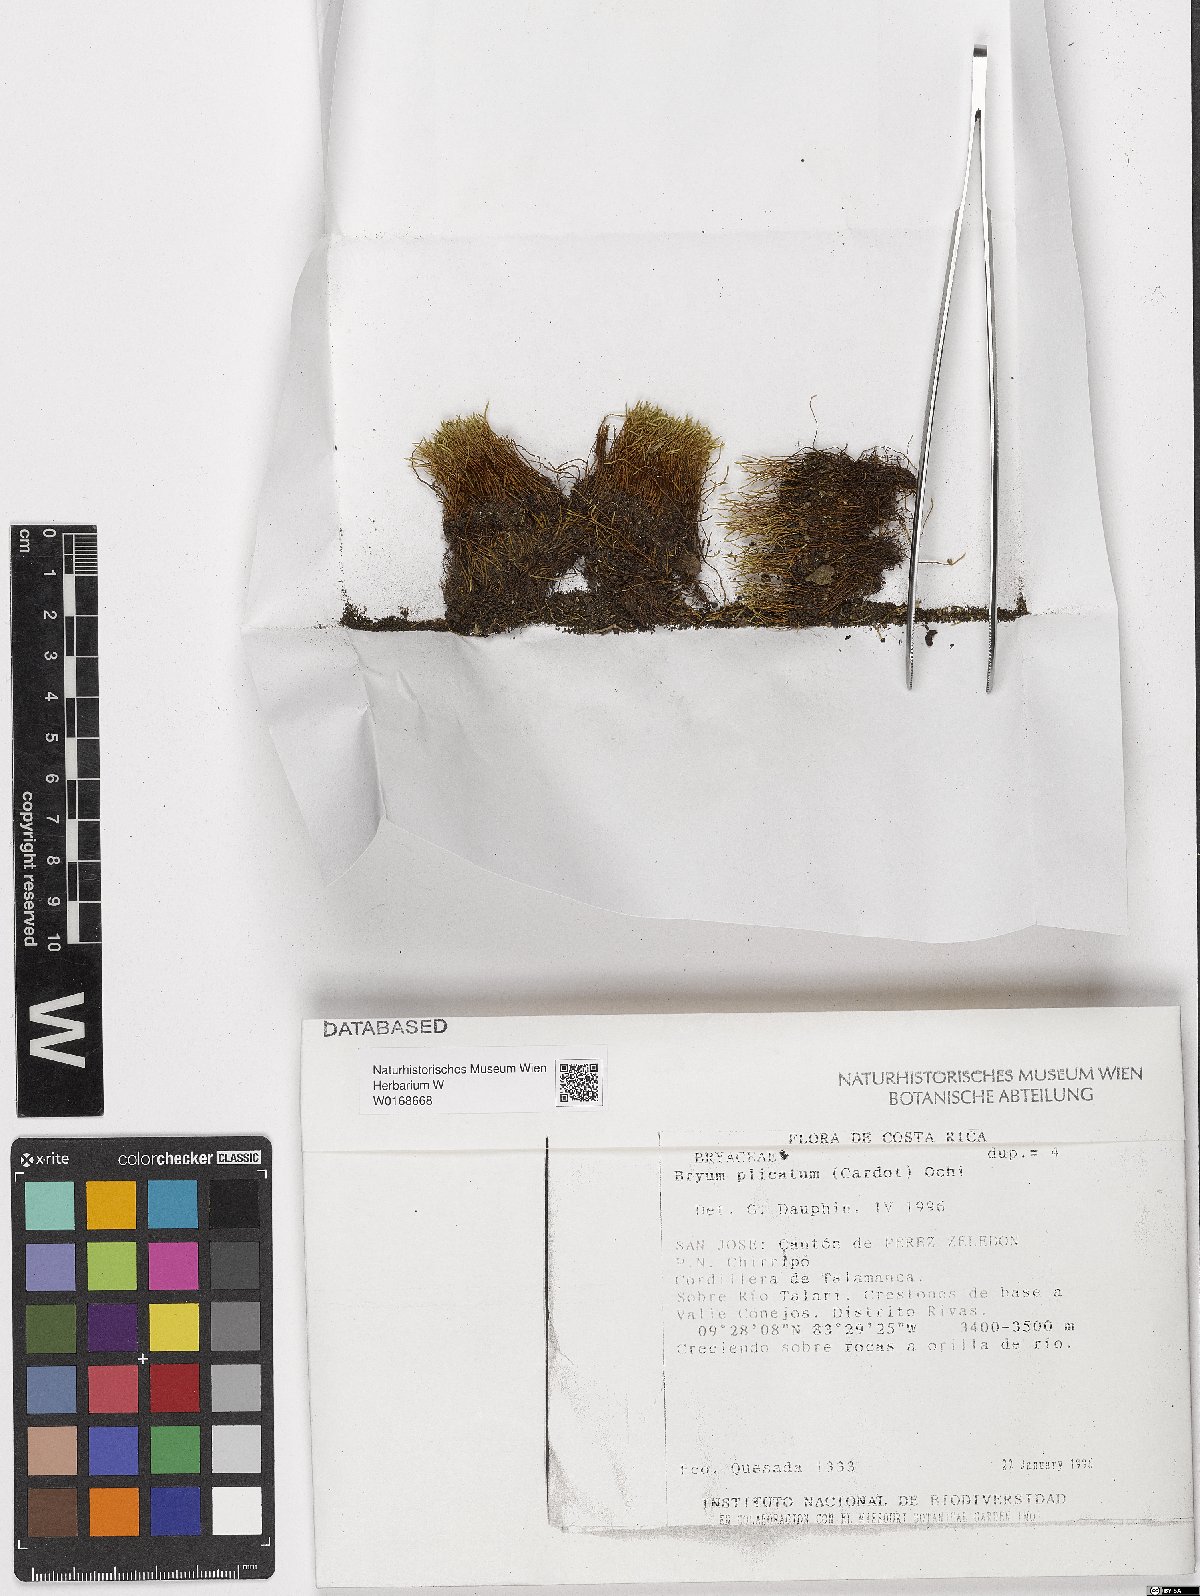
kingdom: Plantae
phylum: Bryophyta
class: Bryopsida
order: Bryales
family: Bryaceae
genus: Anomobryum
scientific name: Anomobryum prostratum
